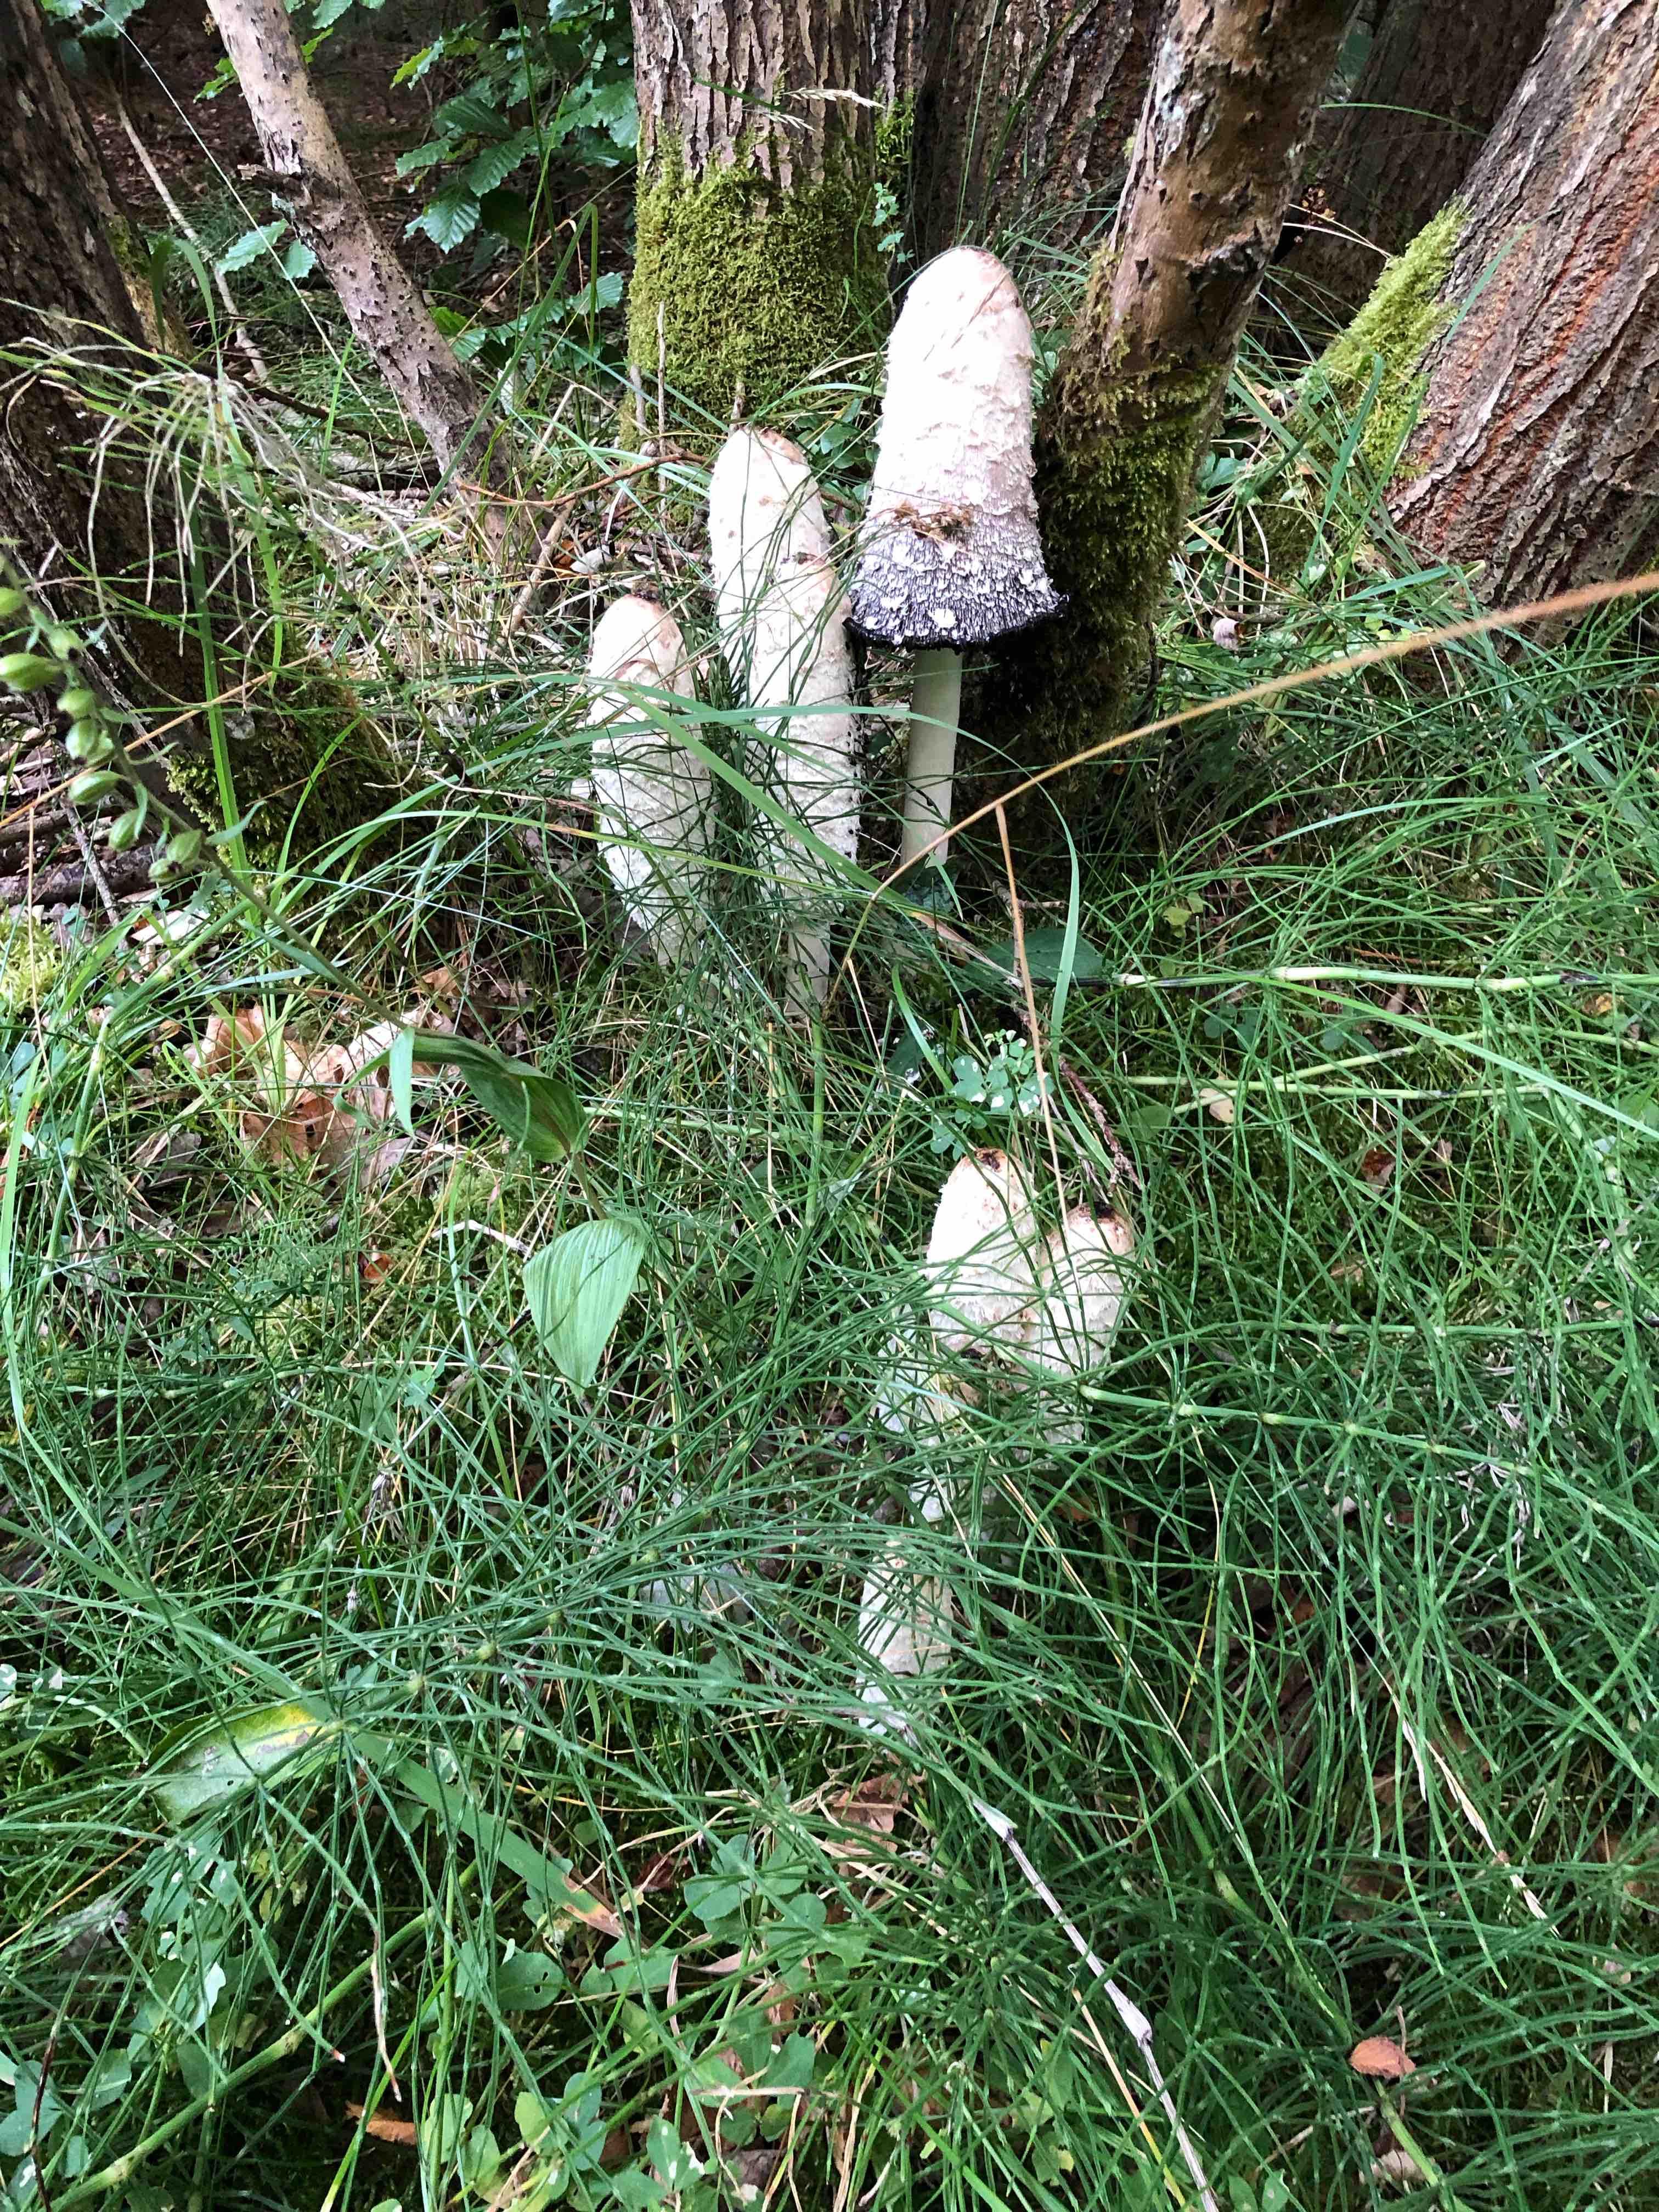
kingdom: Fungi
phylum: Basidiomycota
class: Agaricomycetes
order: Agaricales
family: Agaricaceae
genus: Coprinus
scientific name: Coprinus comatus
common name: stor parykhat
